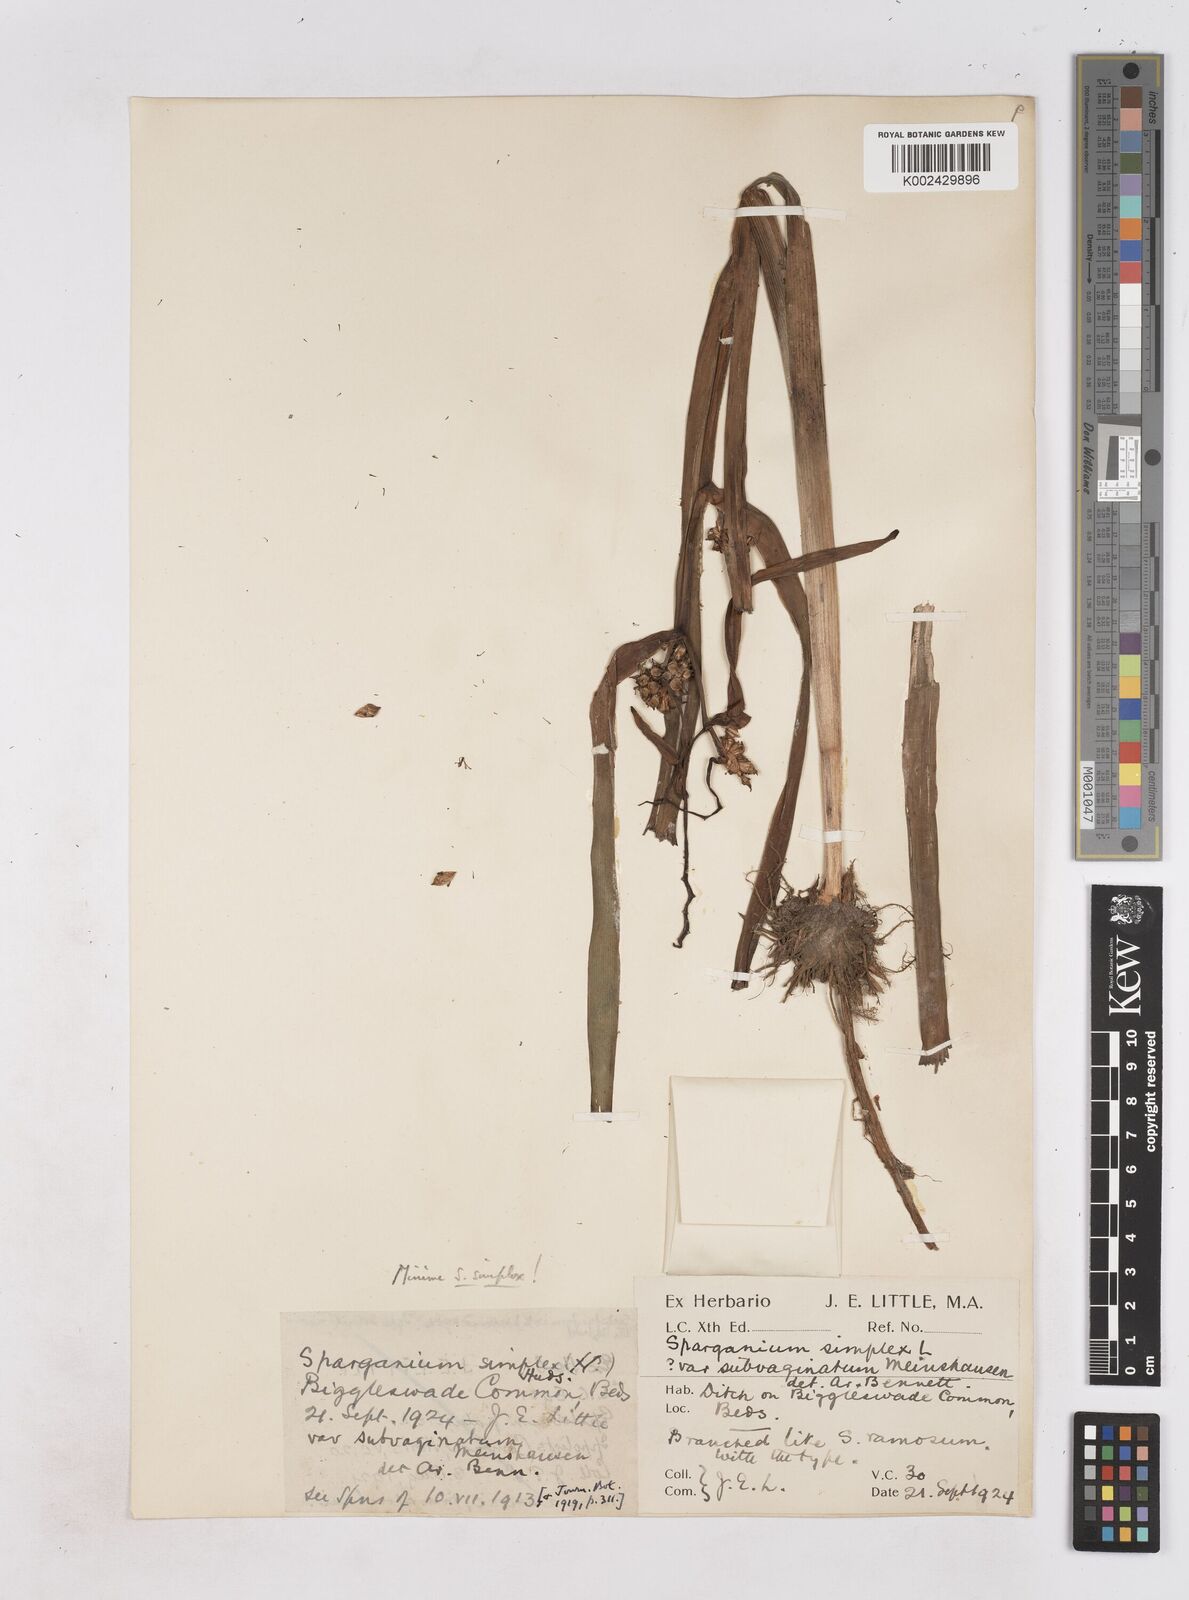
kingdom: Plantae
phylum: Tracheophyta
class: Liliopsida
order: Poales
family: Typhaceae
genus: Sparganium
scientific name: Sparganium erectum
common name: Branched bur-reed
